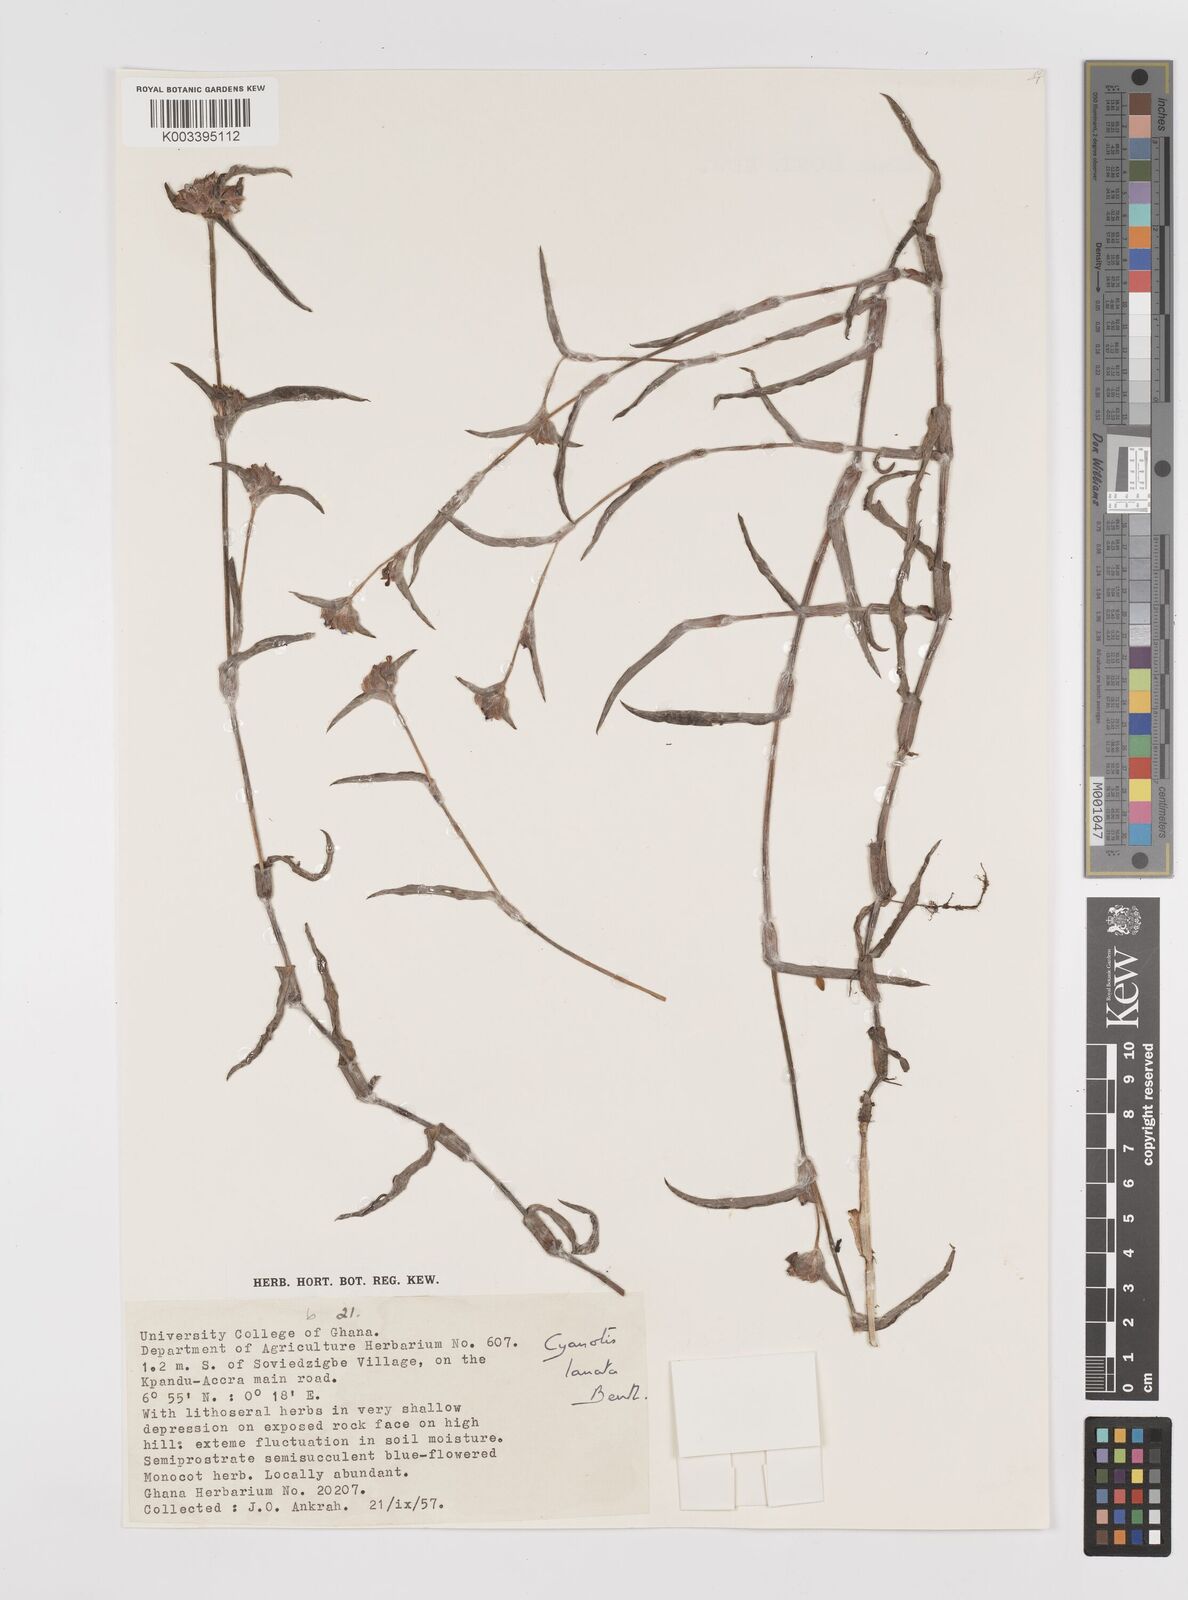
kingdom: Plantae
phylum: Tracheophyta
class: Liliopsida
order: Commelinales
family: Commelinaceae
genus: Cyanotis
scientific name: Cyanotis lanata
